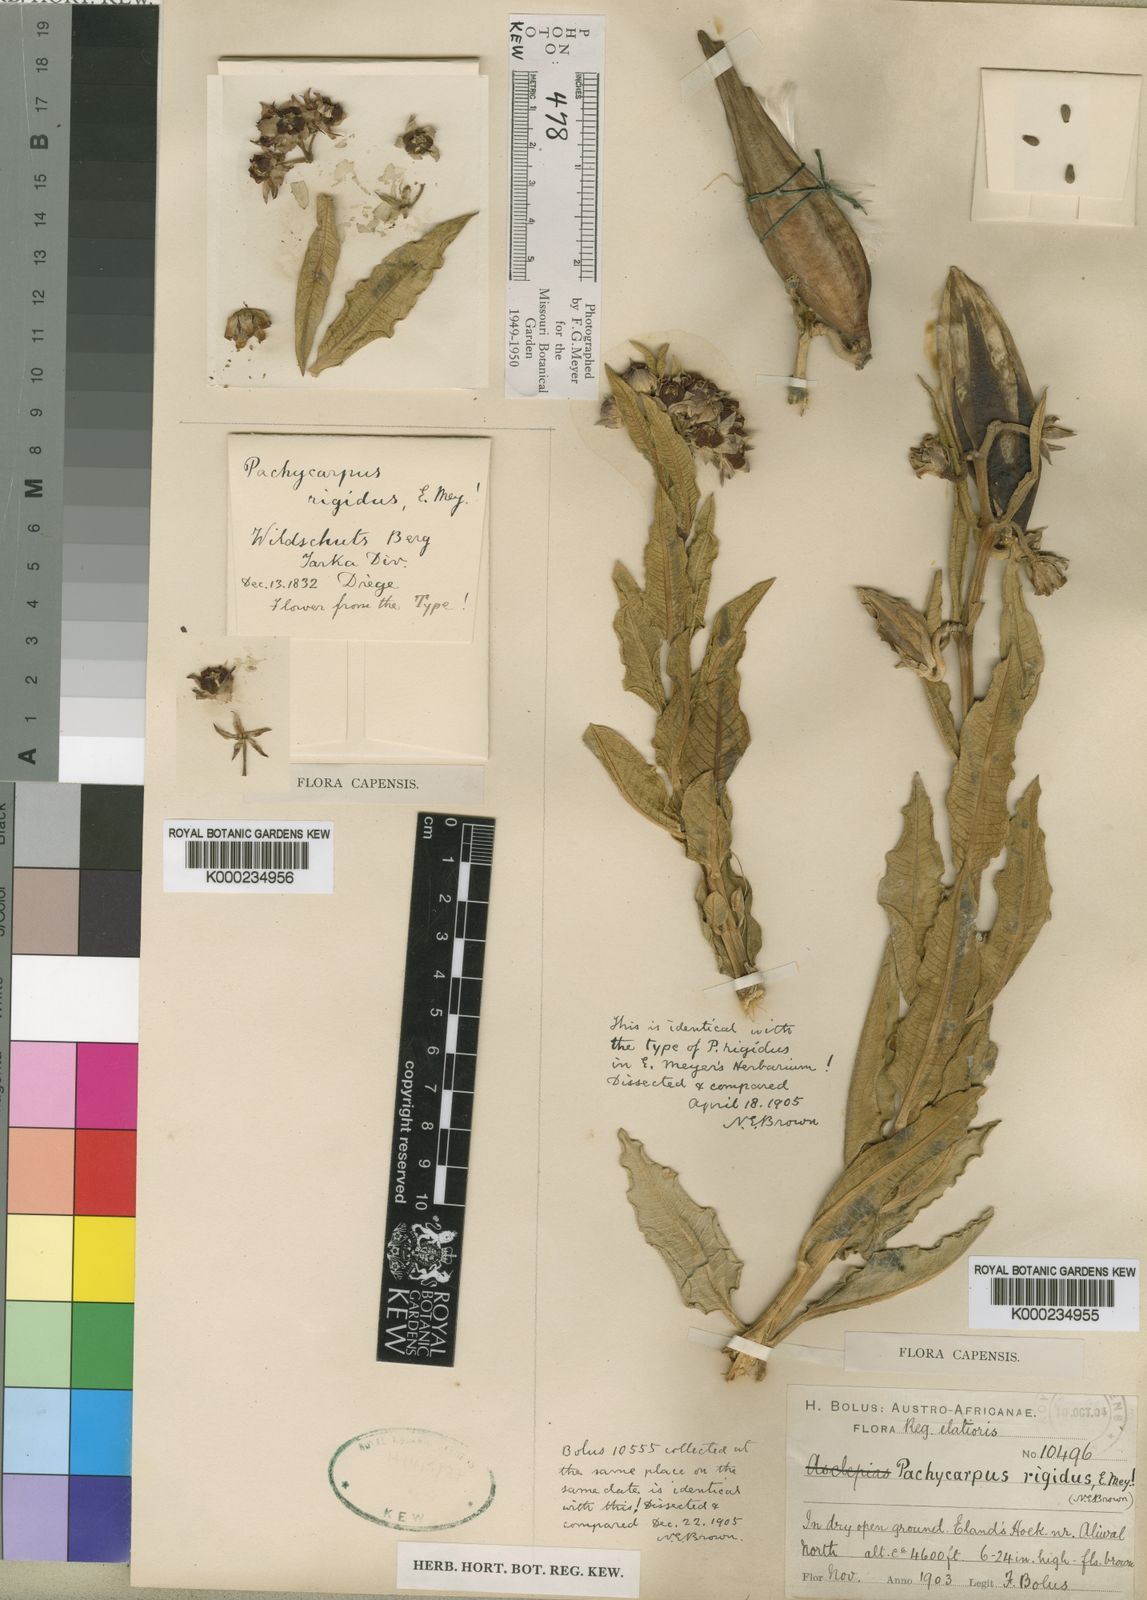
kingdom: Plantae
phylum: Tracheophyta
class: Magnoliopsida
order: Gentianales
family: Apocynaceae
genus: Pachycarpus
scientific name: Pachycarpus rigidus
